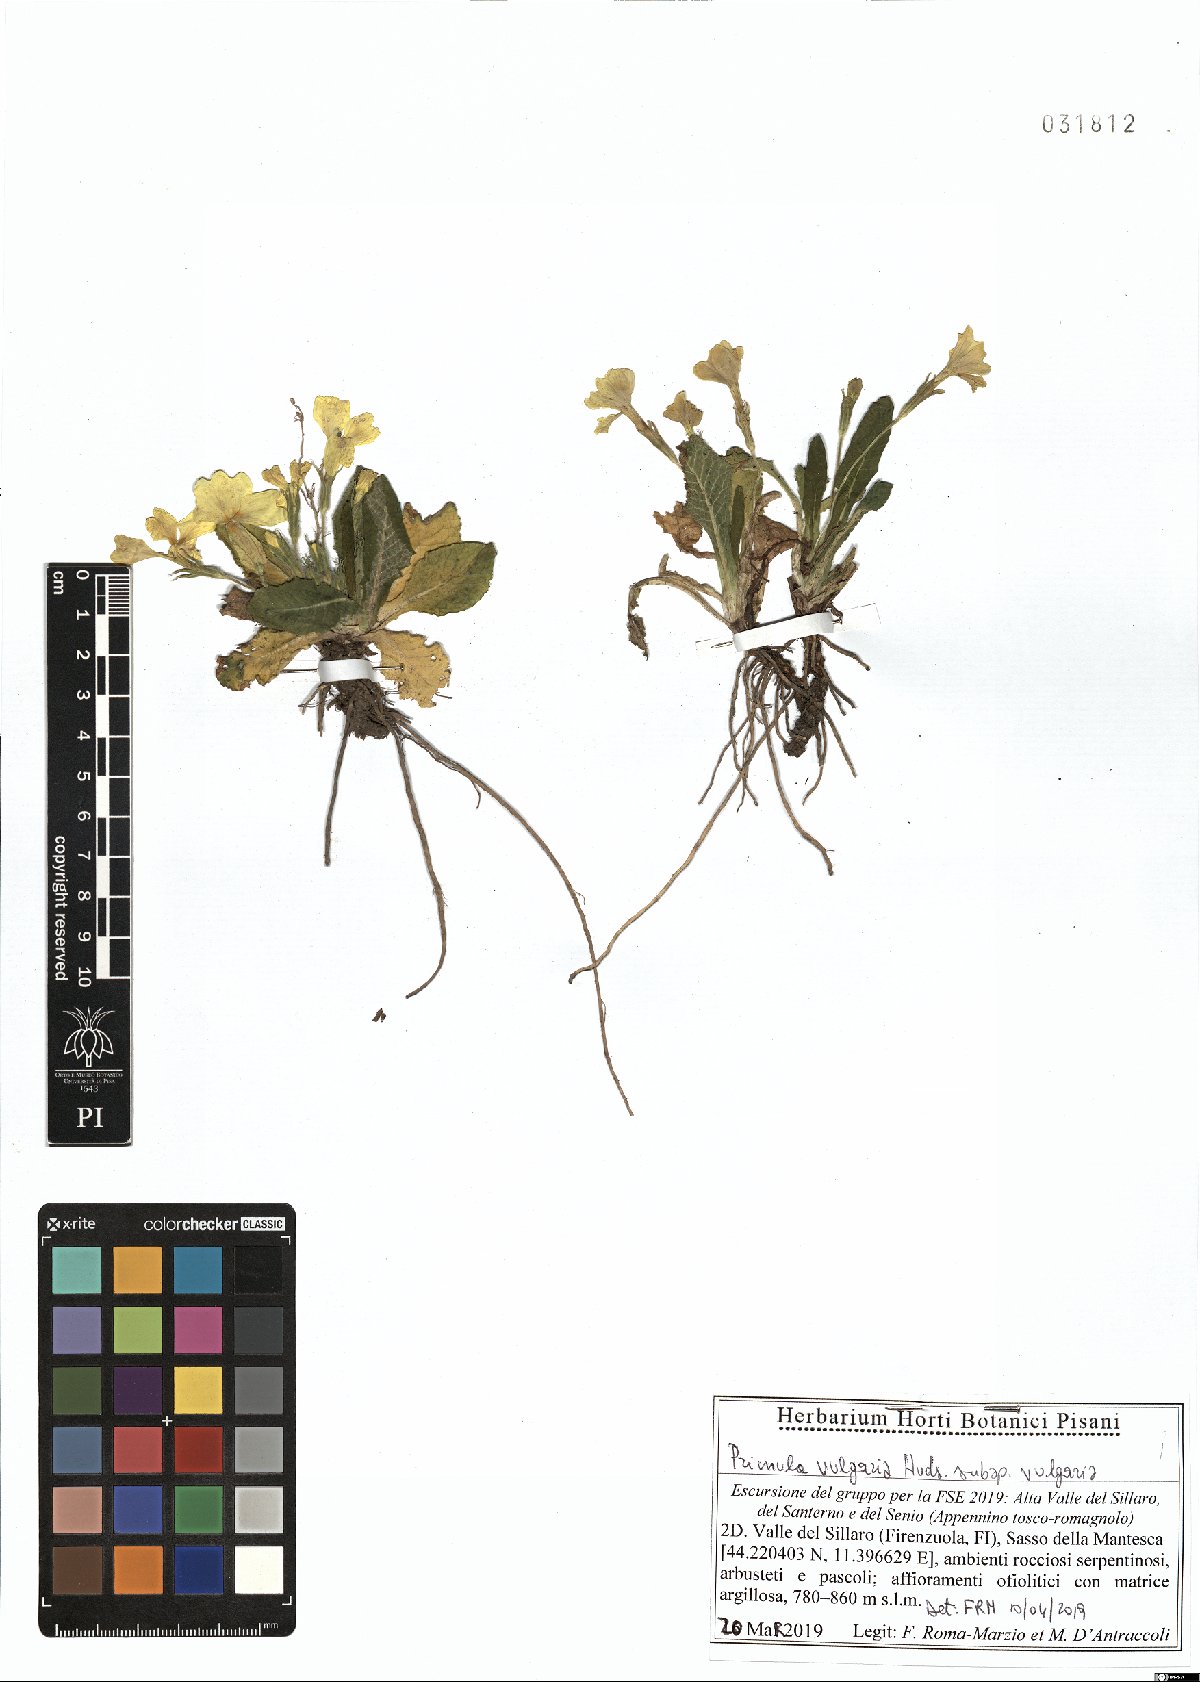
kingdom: Plantae
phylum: Tracheophyta
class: Magnoliopsida
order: Ericales
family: Primulaceae
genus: Primula
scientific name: Primula vulgaris
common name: Primrose
